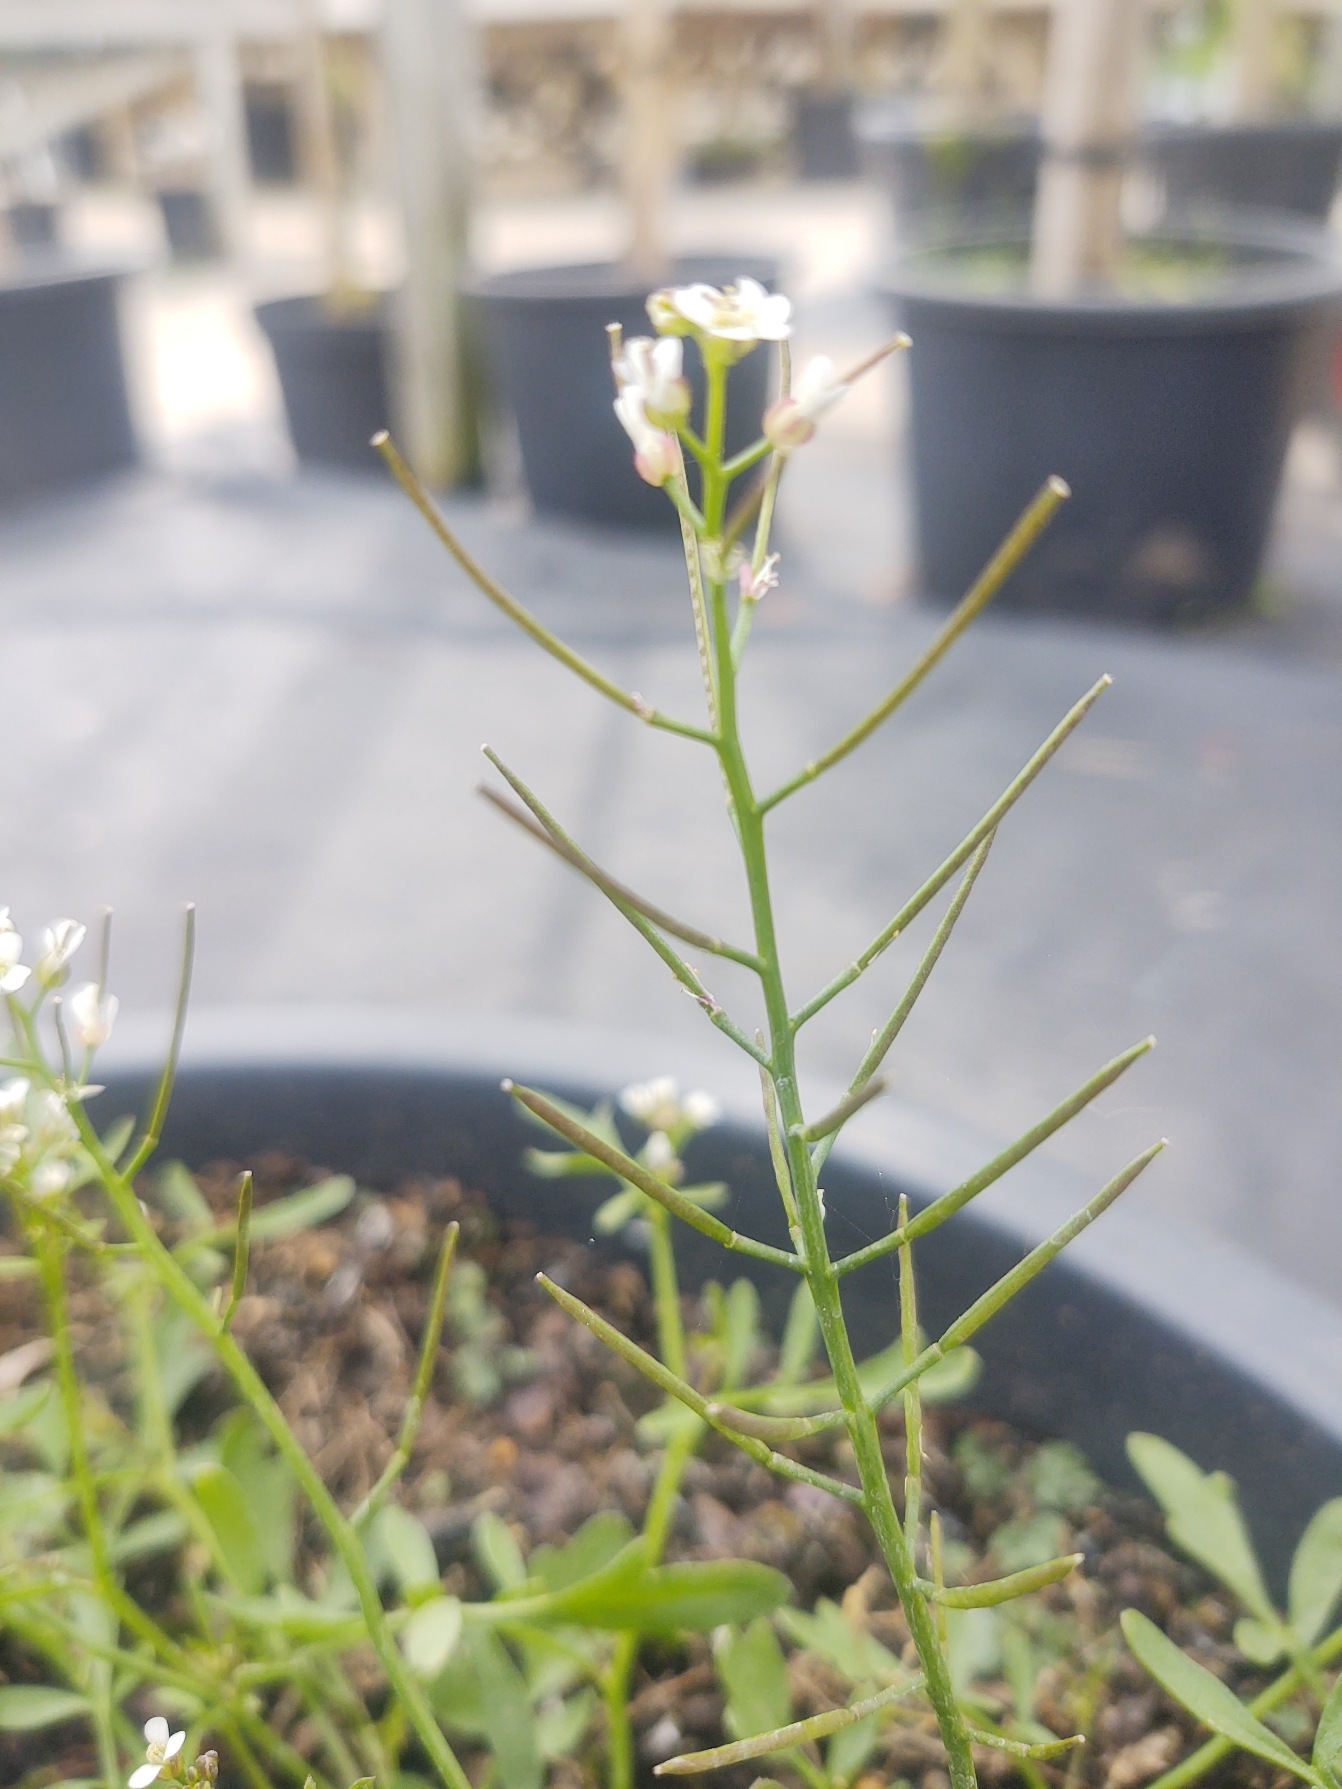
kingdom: Plantae
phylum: Tracheophyta
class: Magnoliopsida
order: Brassicales
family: Brassicaceae
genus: Cardamine
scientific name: Cardamine occulta
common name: Glat skovkarse
